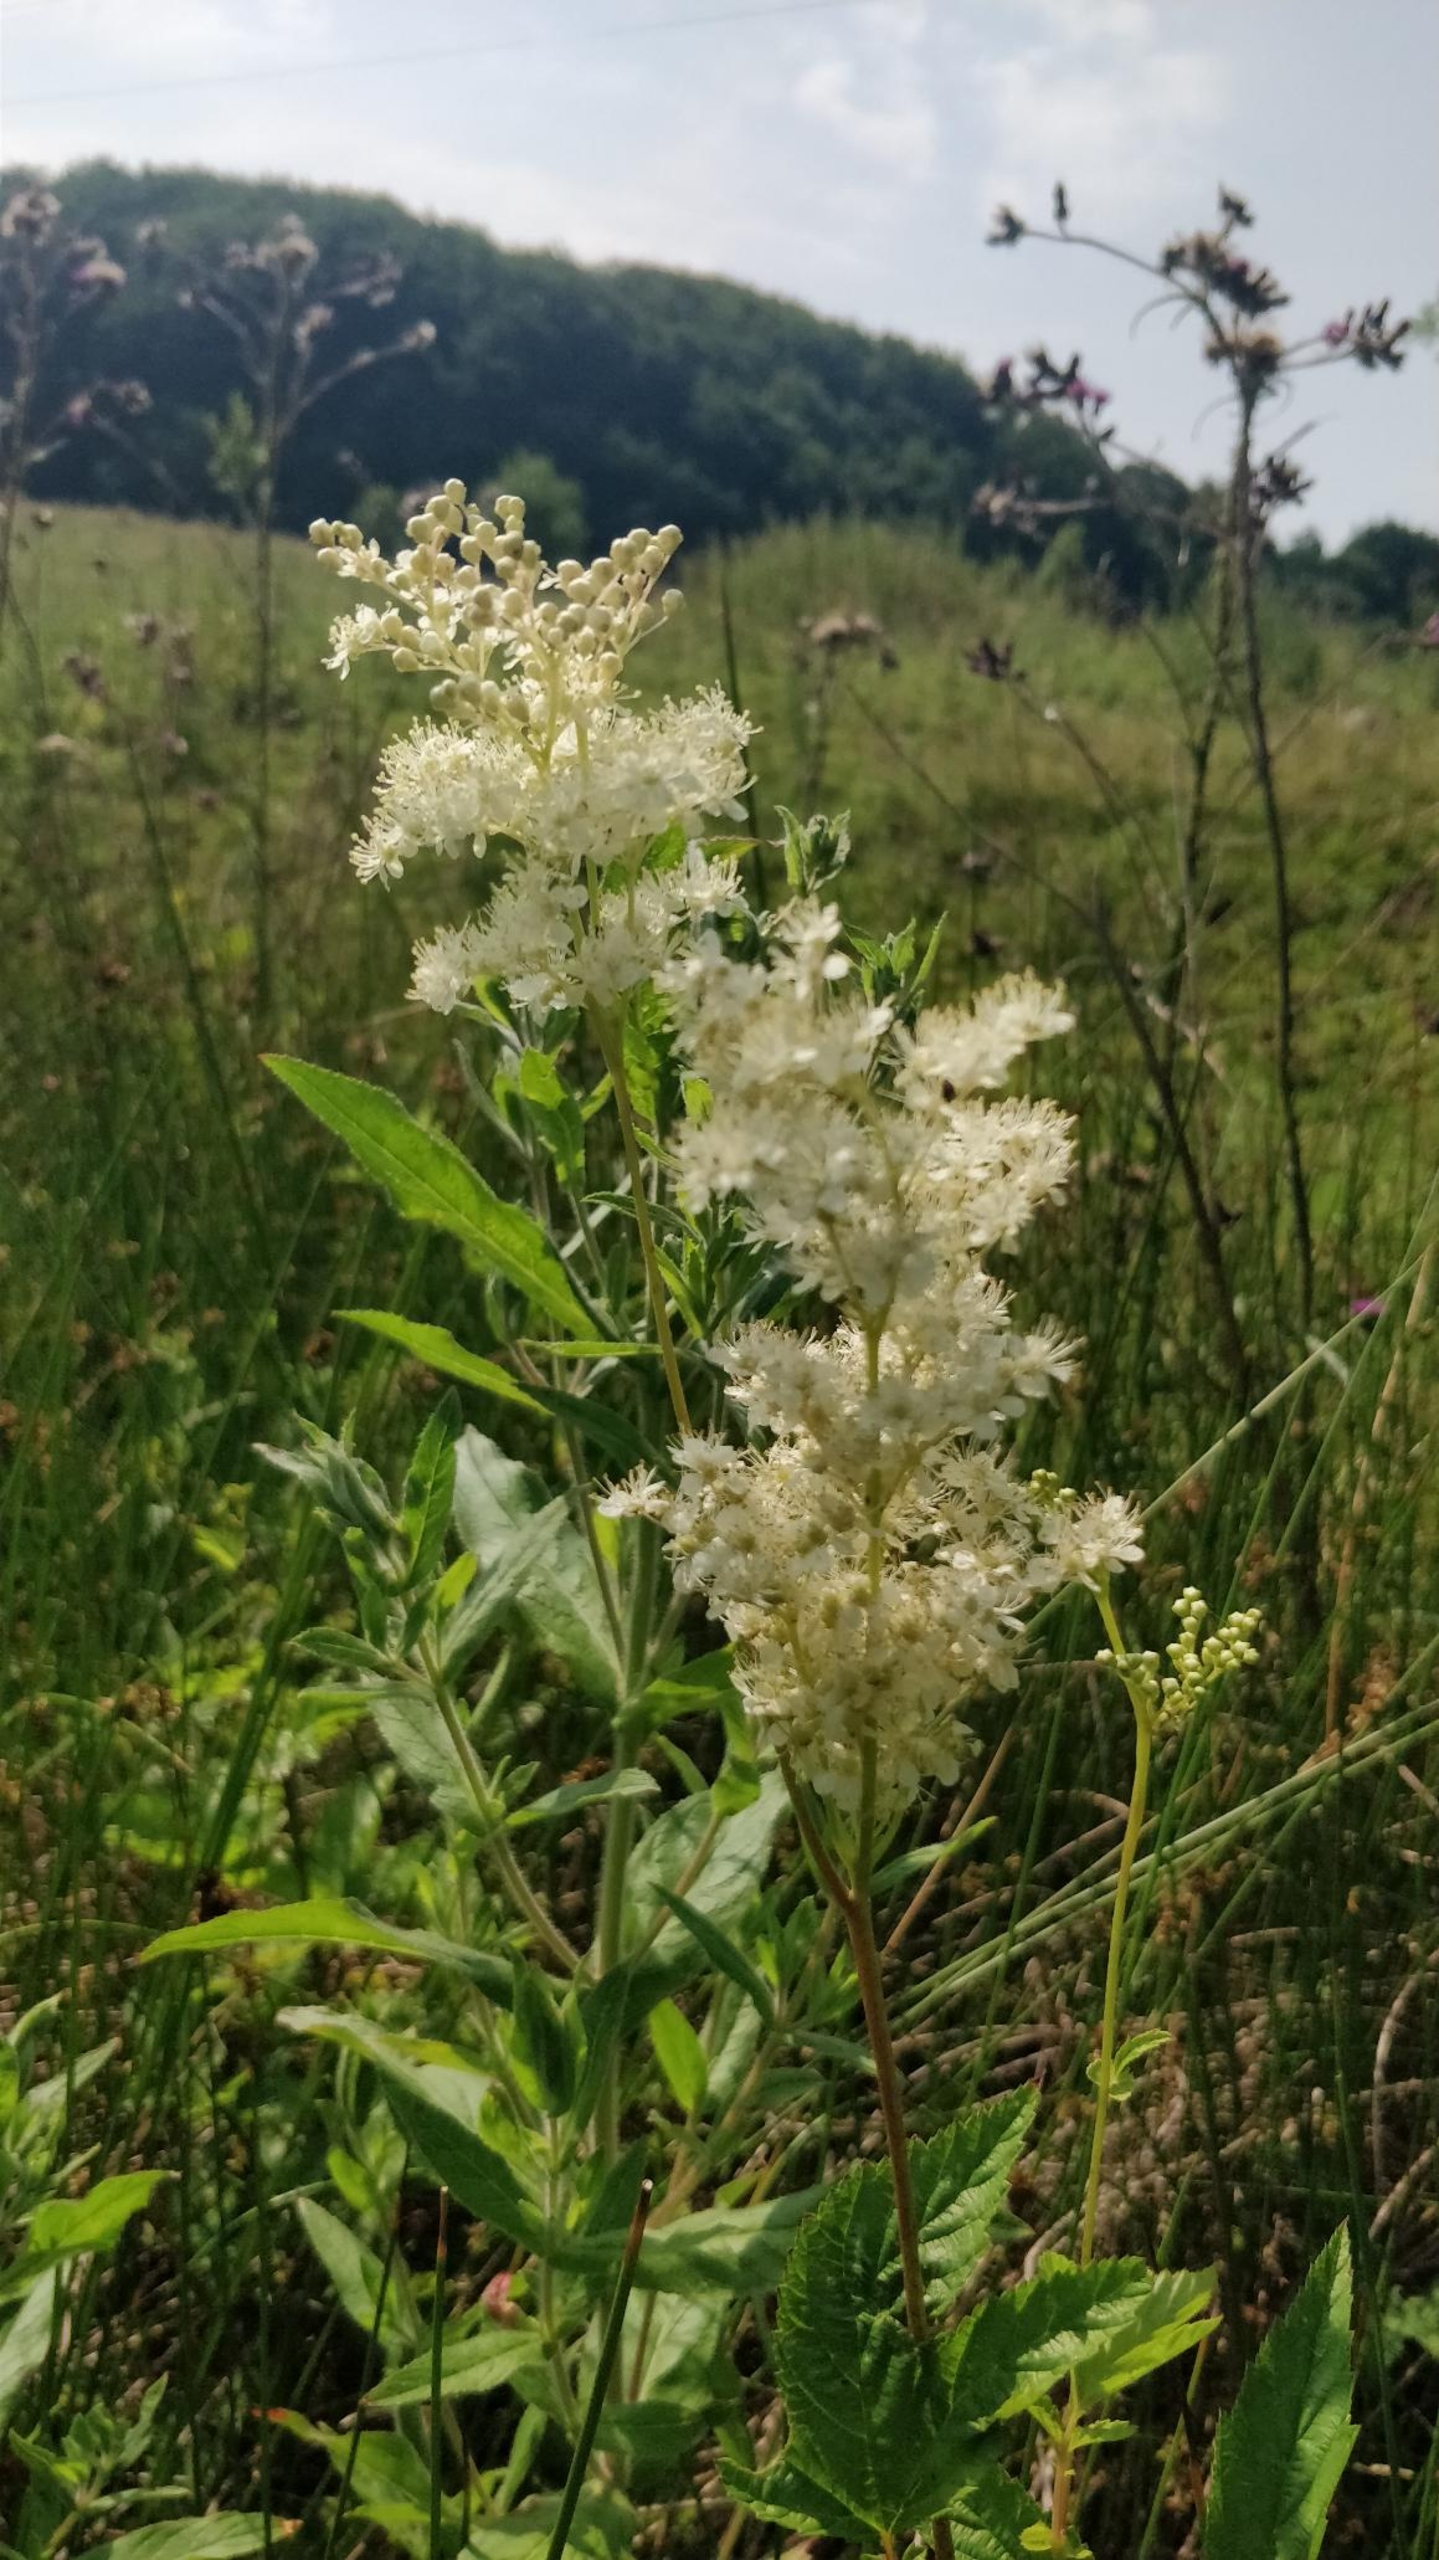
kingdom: Plantae
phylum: Tracheophyta
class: Magnoliopsida
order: Rosales
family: Rosaceae
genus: Filipendula
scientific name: Filipendula ulmaria
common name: Almindelig mjødurt
